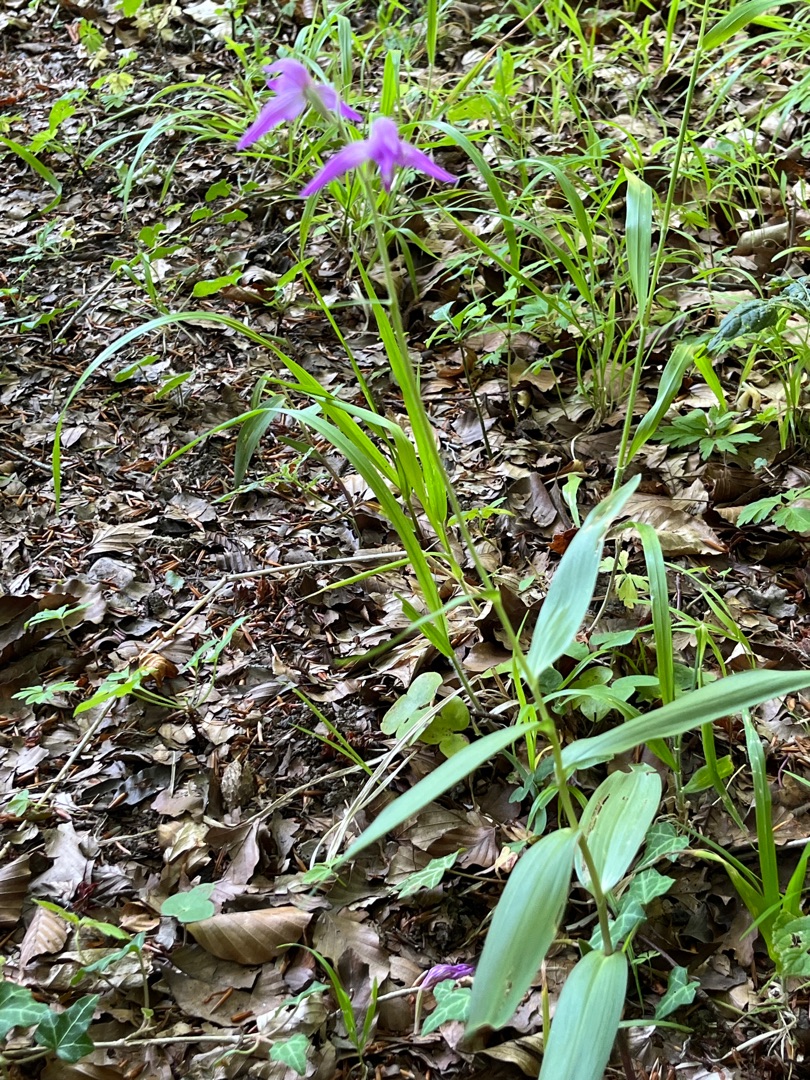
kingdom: Plantae
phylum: Tracheophyta
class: Liliopsida
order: Asparagales
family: Orchidaceae
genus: Cephalanthera
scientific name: Cephalanthera rubra
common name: Rød skovlilje
